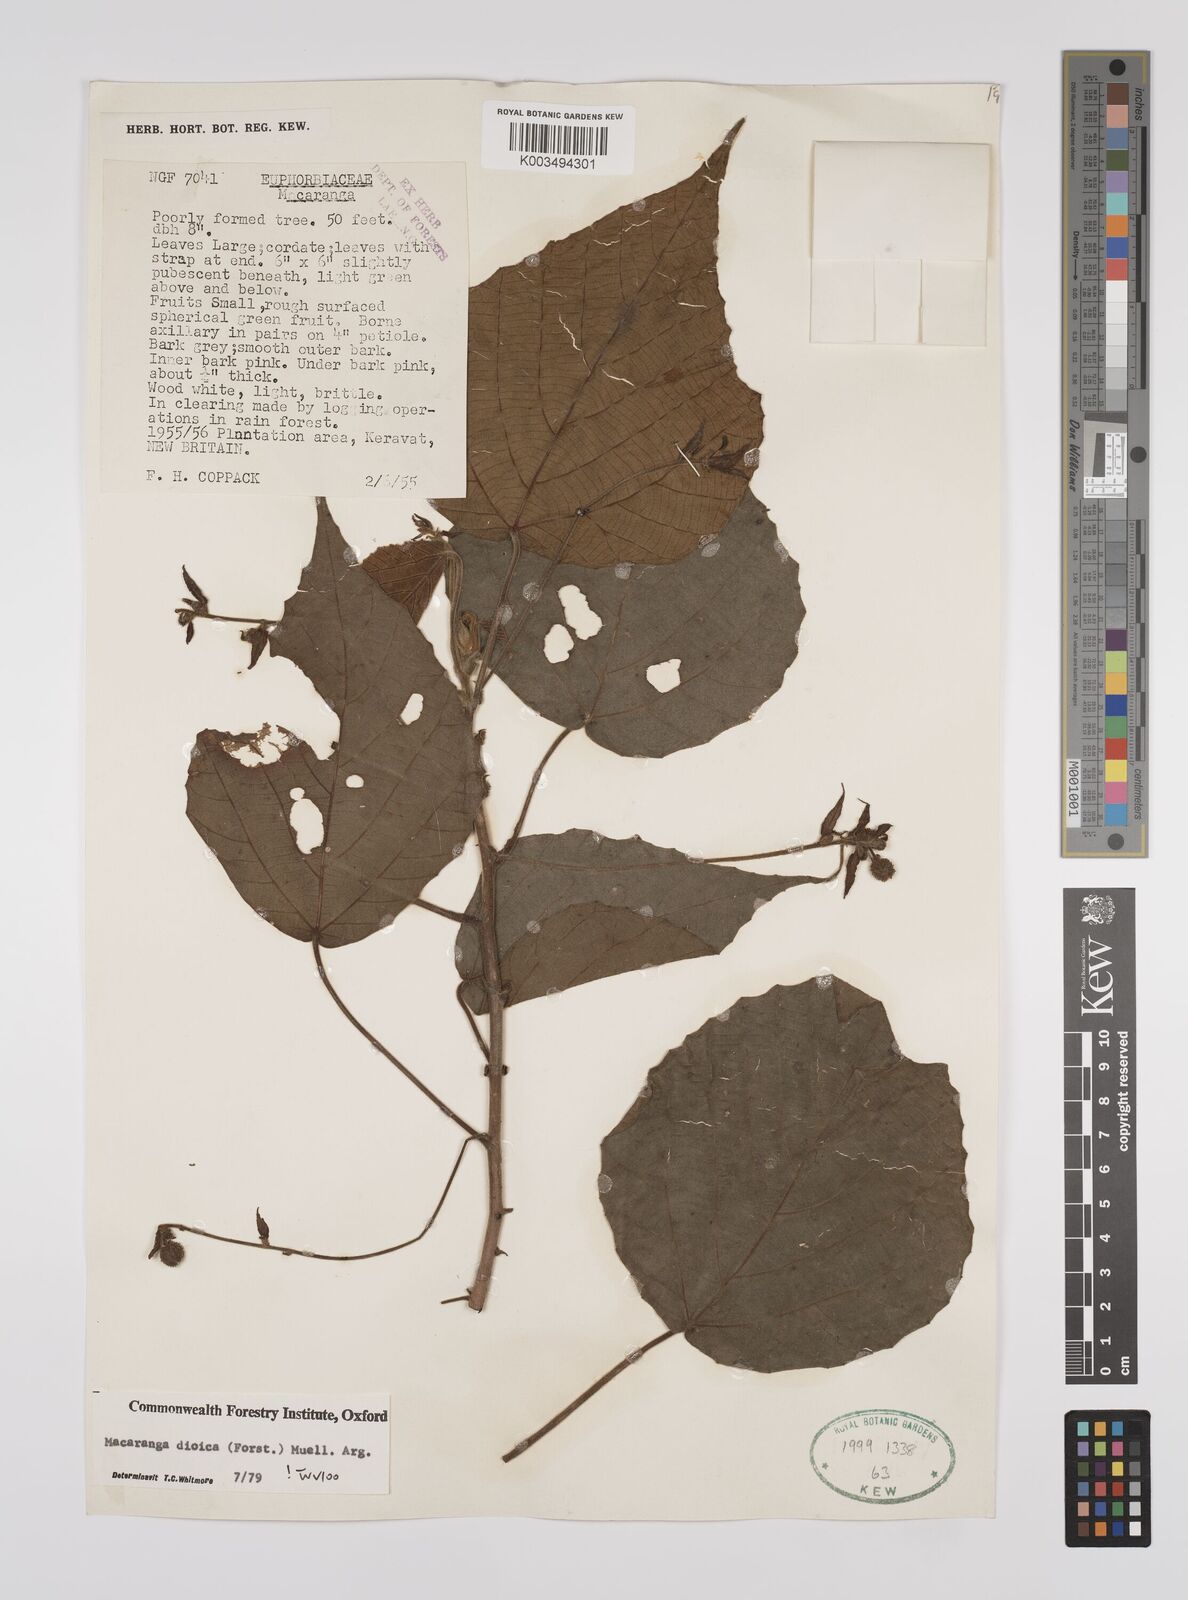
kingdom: Plantae
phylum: Tracheophyta
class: Magnoliopsida
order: Malpighiales
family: Euphorbiaceae
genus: Macaranga
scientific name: Macaranga dioica
